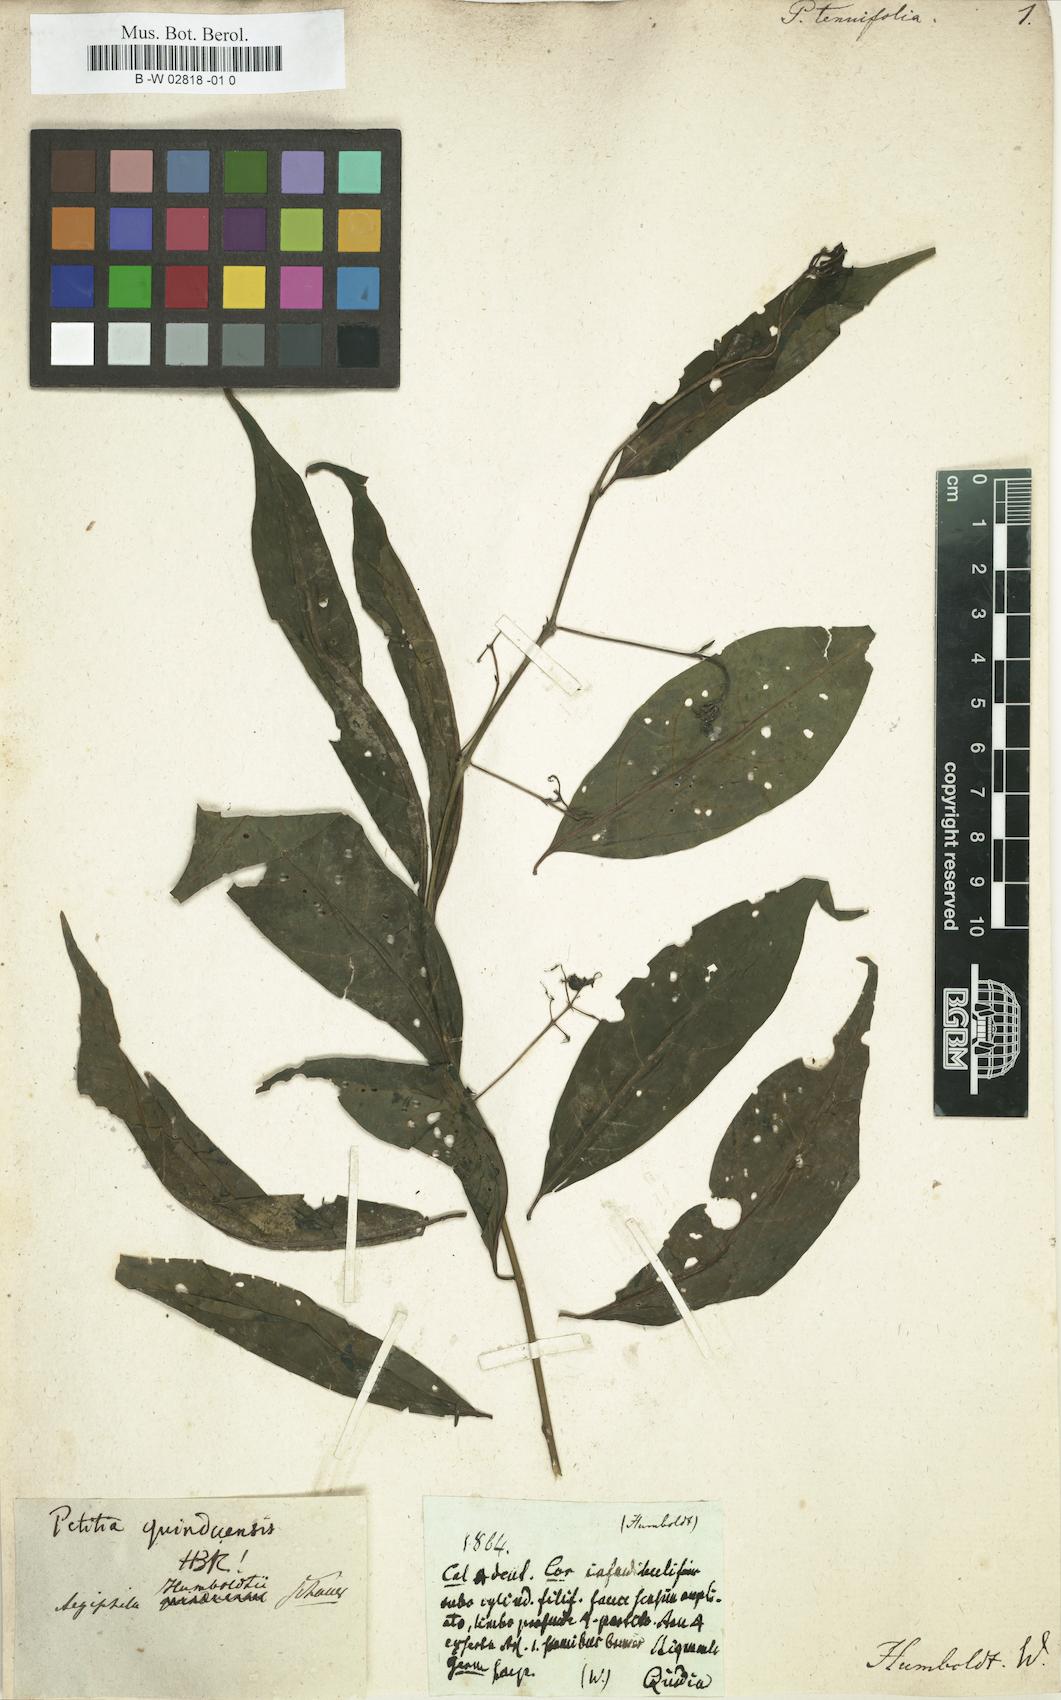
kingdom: Plantae
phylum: Tracheophyta
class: Magnoliopsida
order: Lamiales
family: Lamiaceae
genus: Aegiphila
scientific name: Aegiphila quinduensis
